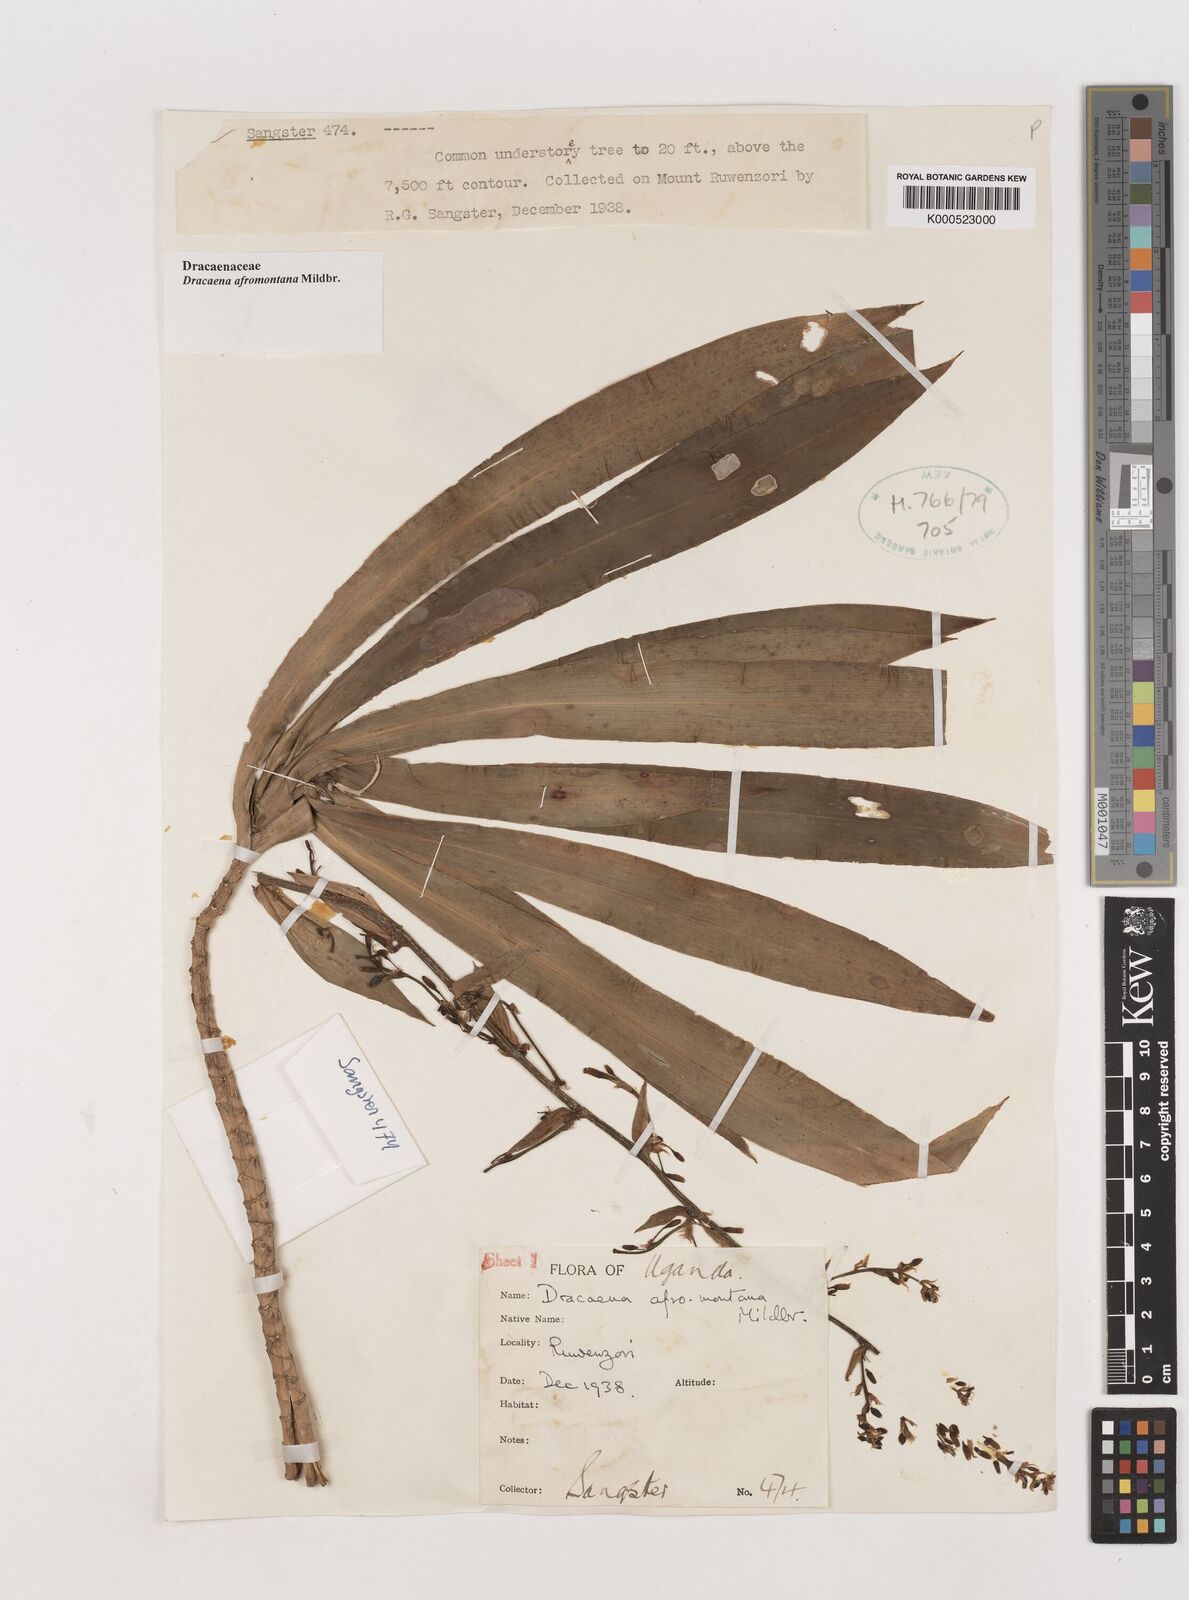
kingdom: Plantae
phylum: Tracheophyta
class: Liliopsida
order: Asparagales
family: Asparagaceae
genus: Dracaena
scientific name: Dracaena afromontana
